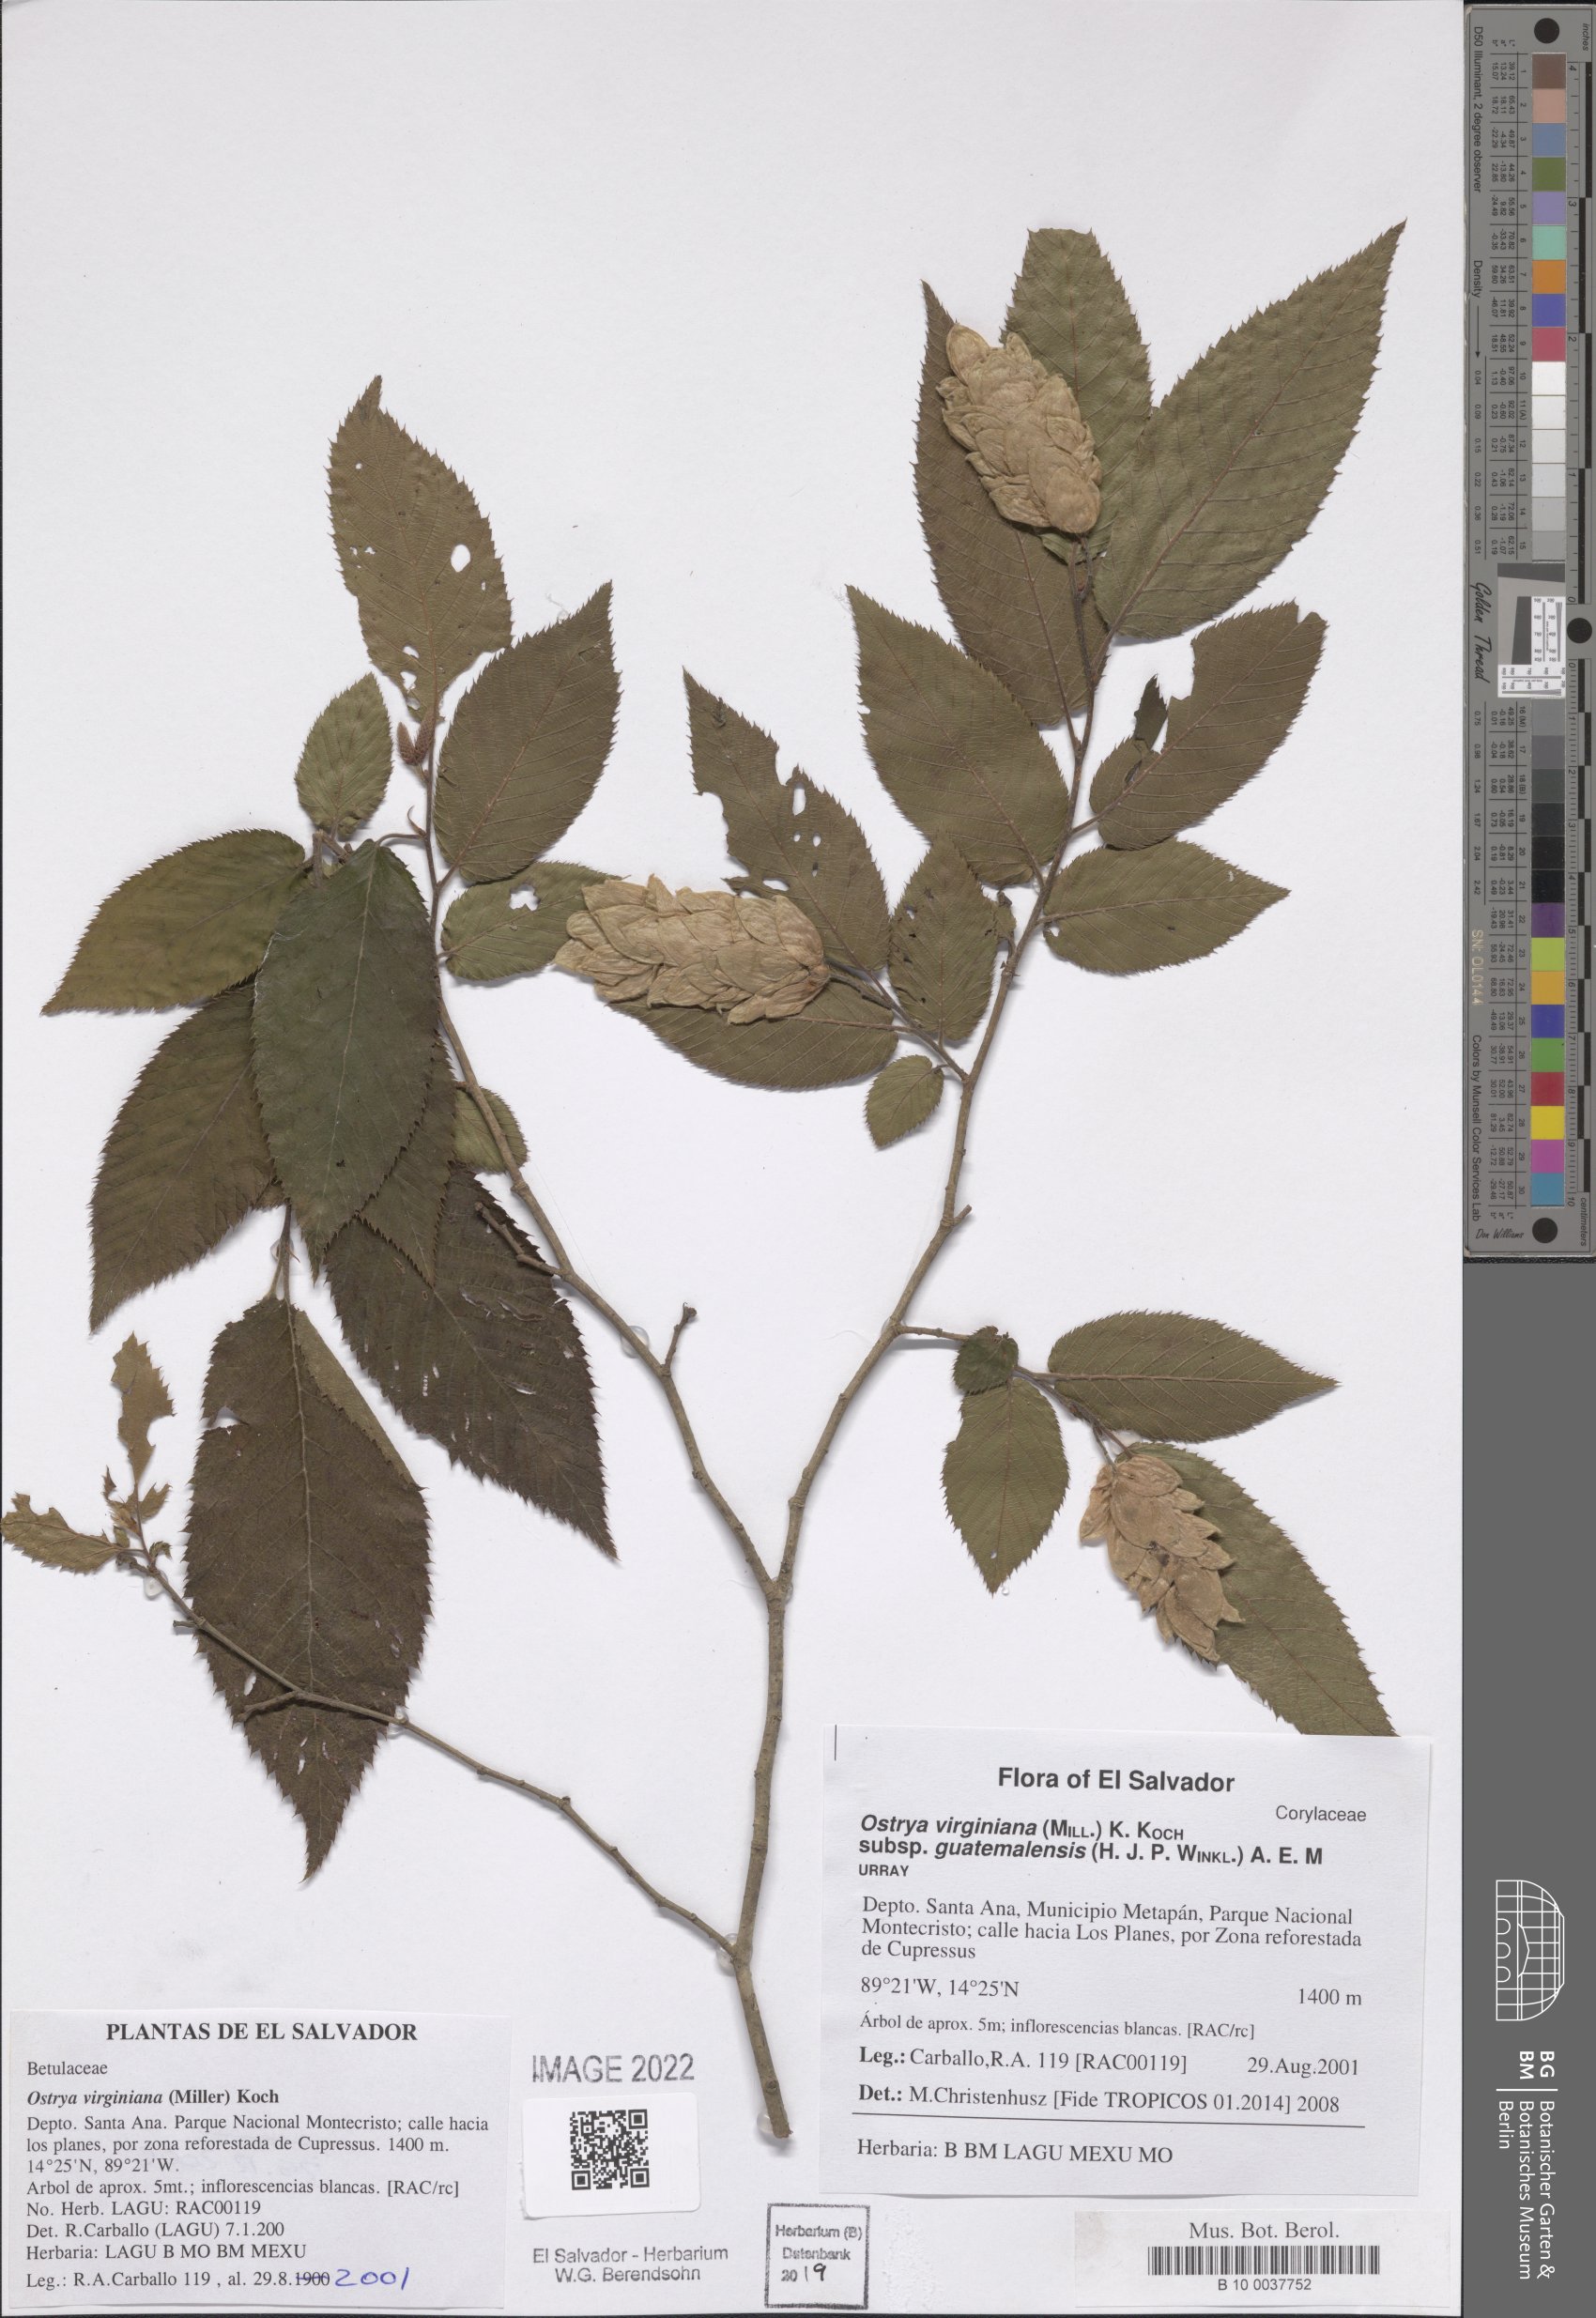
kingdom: Plantae
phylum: Tracheophyta
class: Magnoliopsida
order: Fagales
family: Betulaceae
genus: Ostrya
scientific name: Ostrya virginiana
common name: Ironwood
